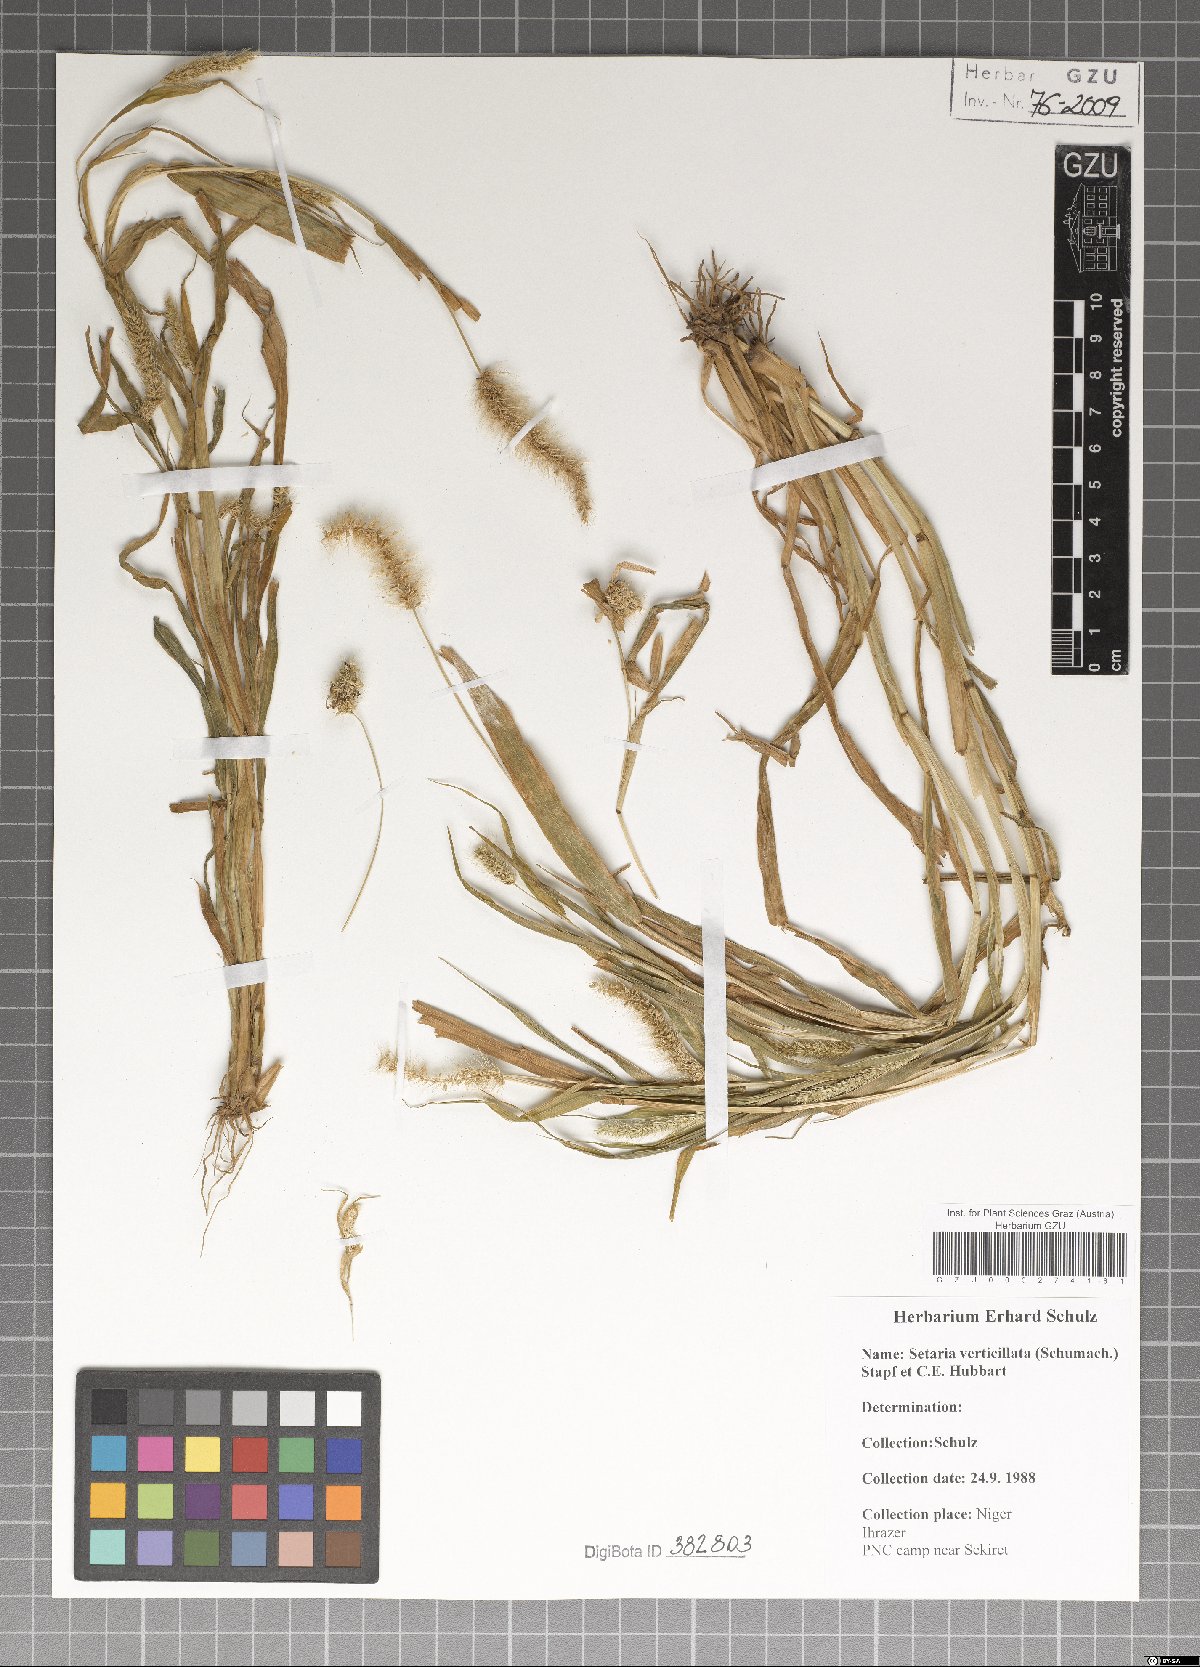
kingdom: Plantae
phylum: Tracheophyta
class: Liliopsida
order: Poales
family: Poaceae
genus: Setaria
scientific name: Setaria verticillata
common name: Hooked bristlegrass
